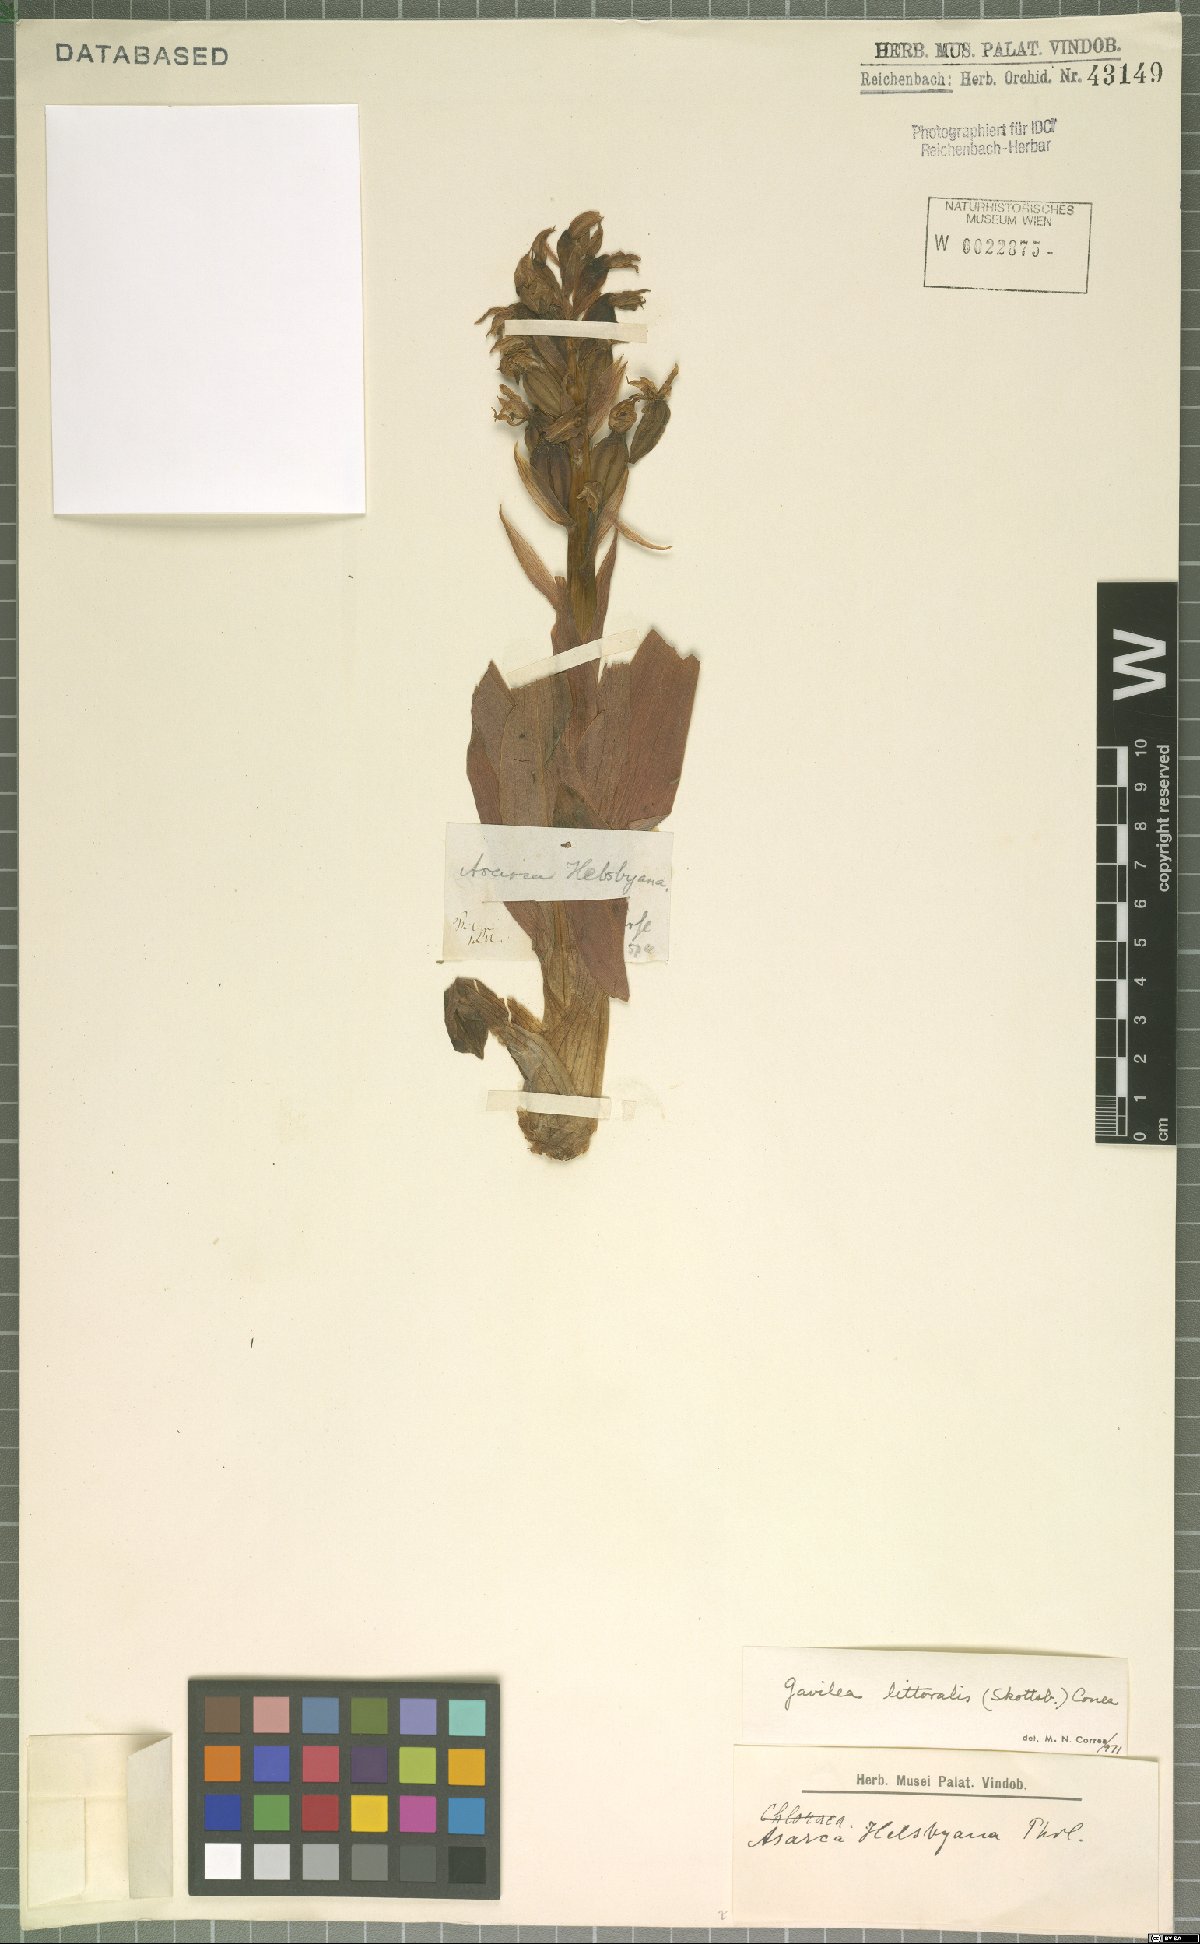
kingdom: Plantae
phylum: Tracheophyta
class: Liliopsida
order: Asparagales
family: Orchidaceae
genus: Gavilea
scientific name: Gavilea litoralis
